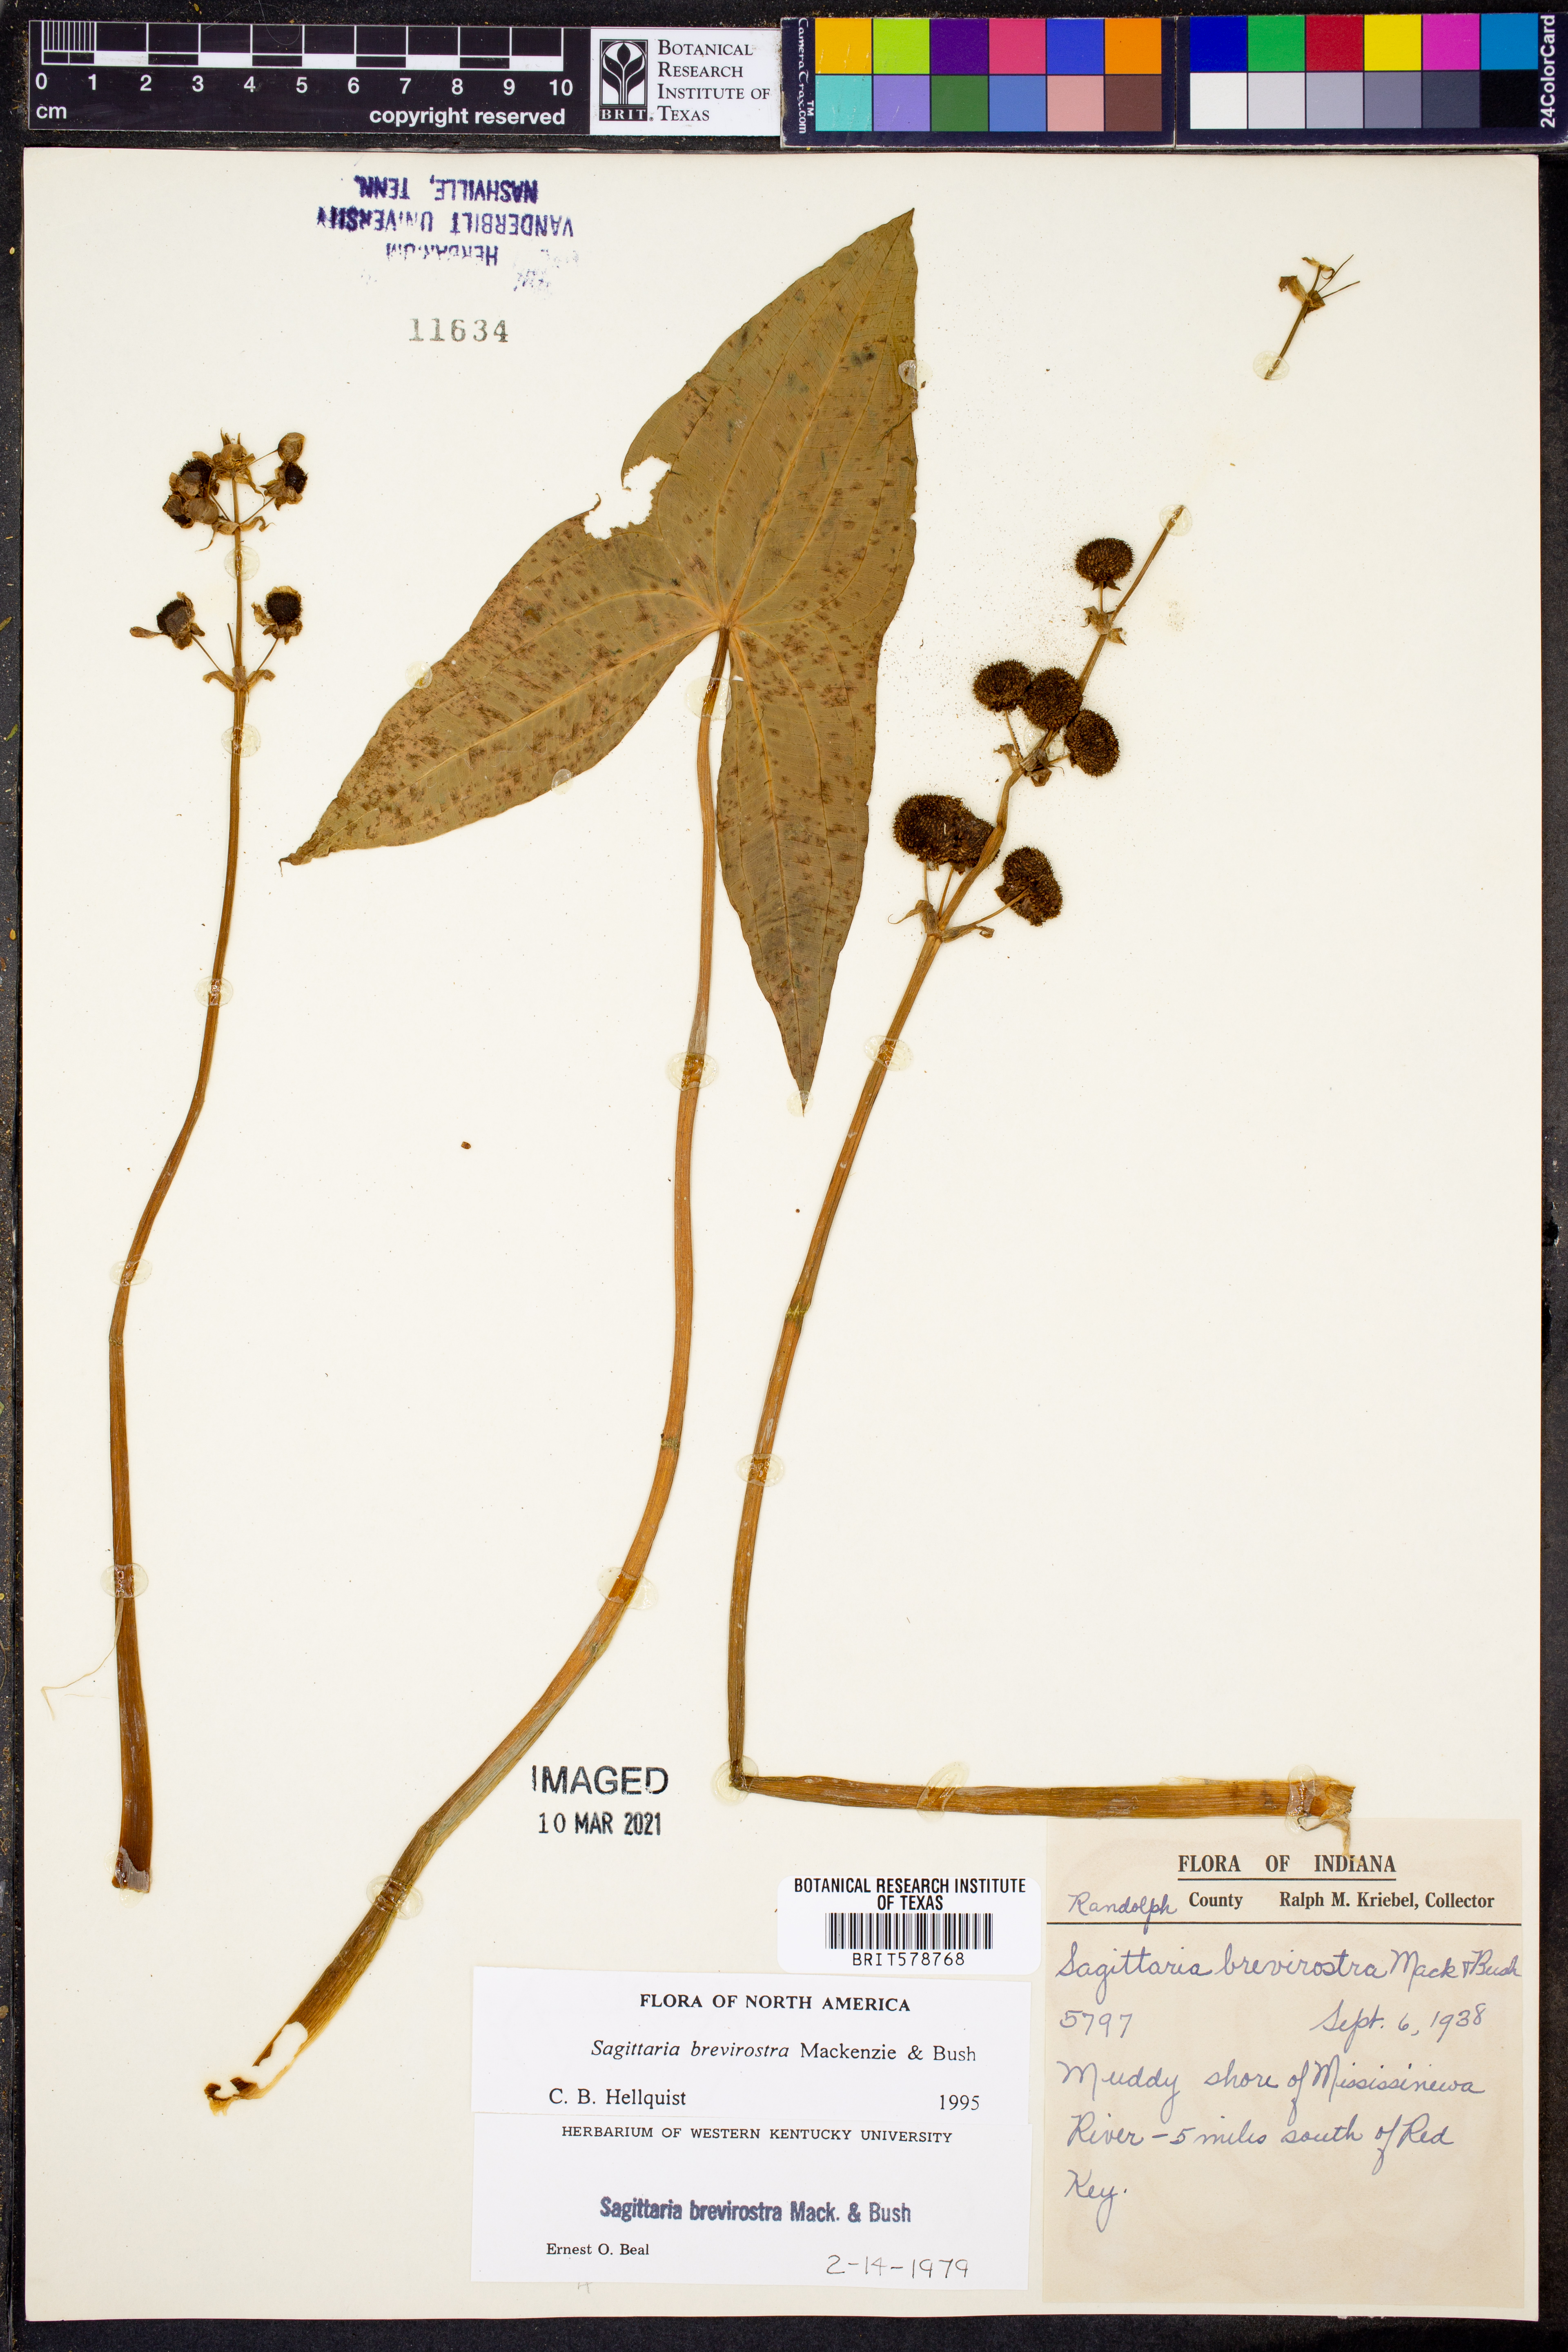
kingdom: Plantae
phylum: Tracheophyta
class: Liliopsida
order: Alismatales
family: Alismataceae
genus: Sagittaria
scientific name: Sagittaria brevirostra
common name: Midwestern arrowhead
